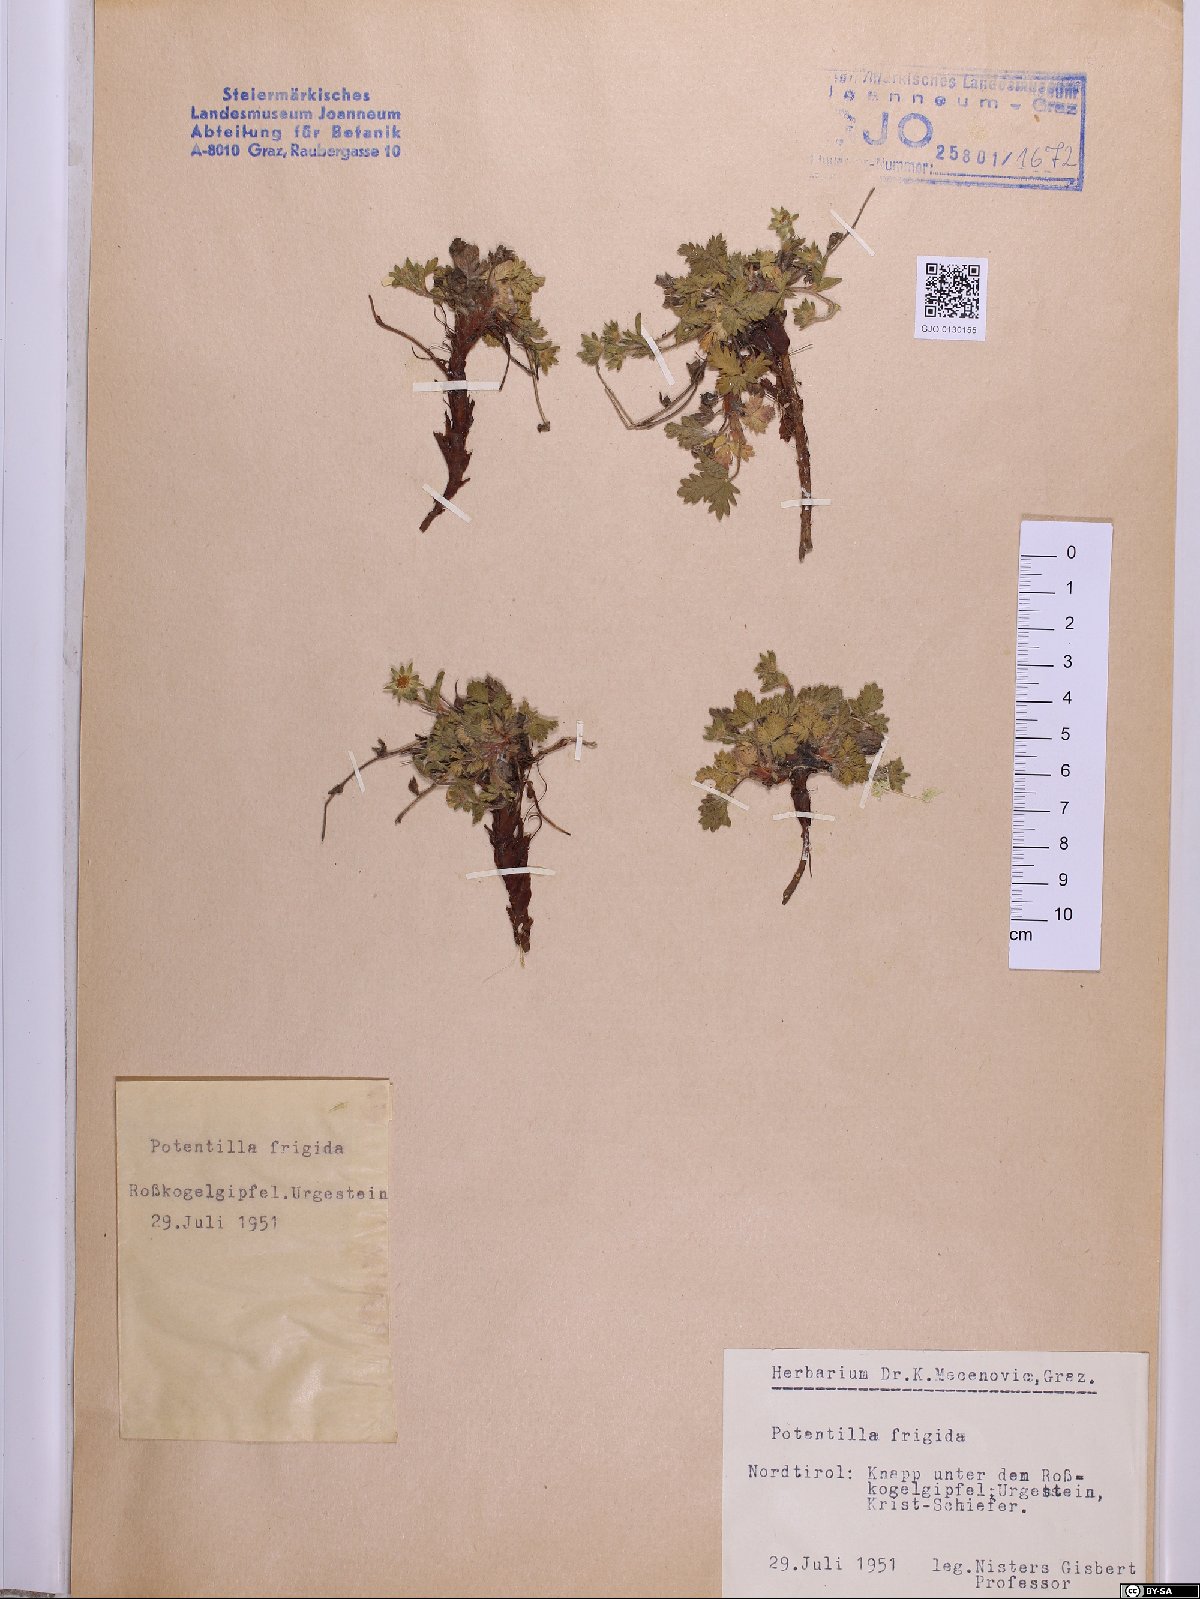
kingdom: Plantae
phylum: Tracheophyta
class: Magnoliopsida
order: Rosales
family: Rosaceae
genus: Potentilla
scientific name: Potentilla frigida
